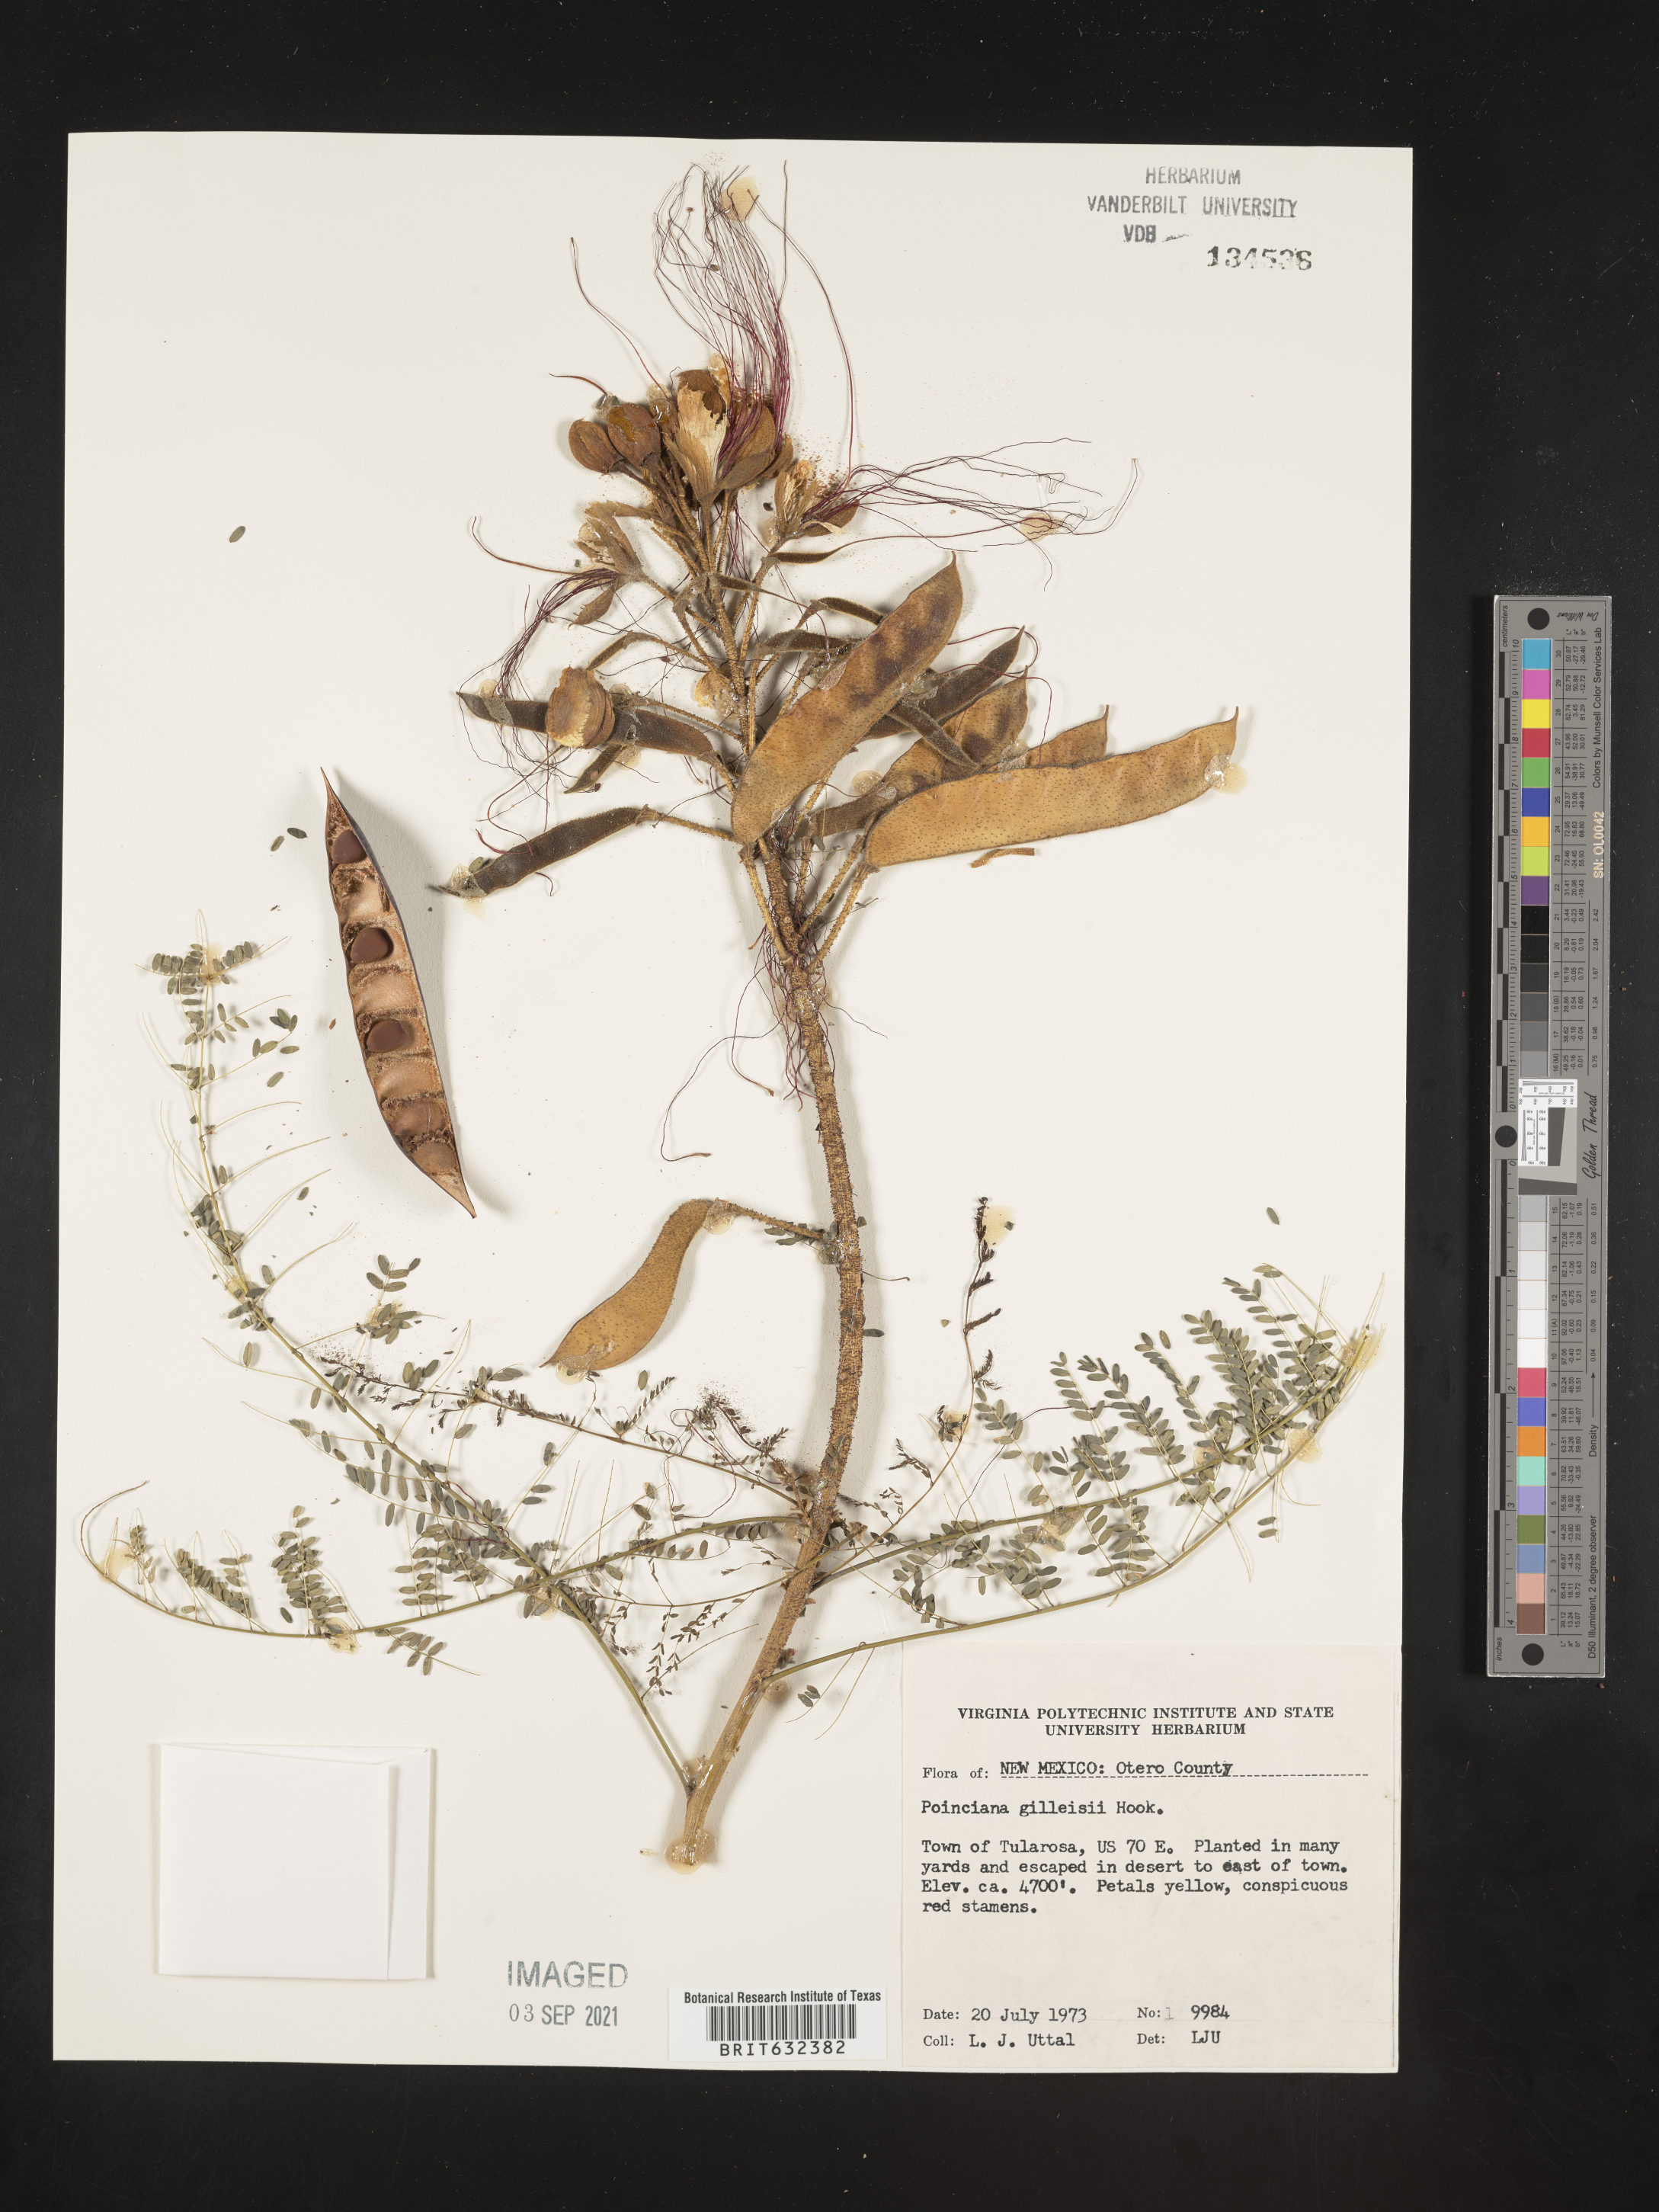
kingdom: Plantae
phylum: Tracheophyta
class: Magnoliopsida
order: Fabales
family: Fabaceae
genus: Caesalpinia
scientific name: Caesalpinia
